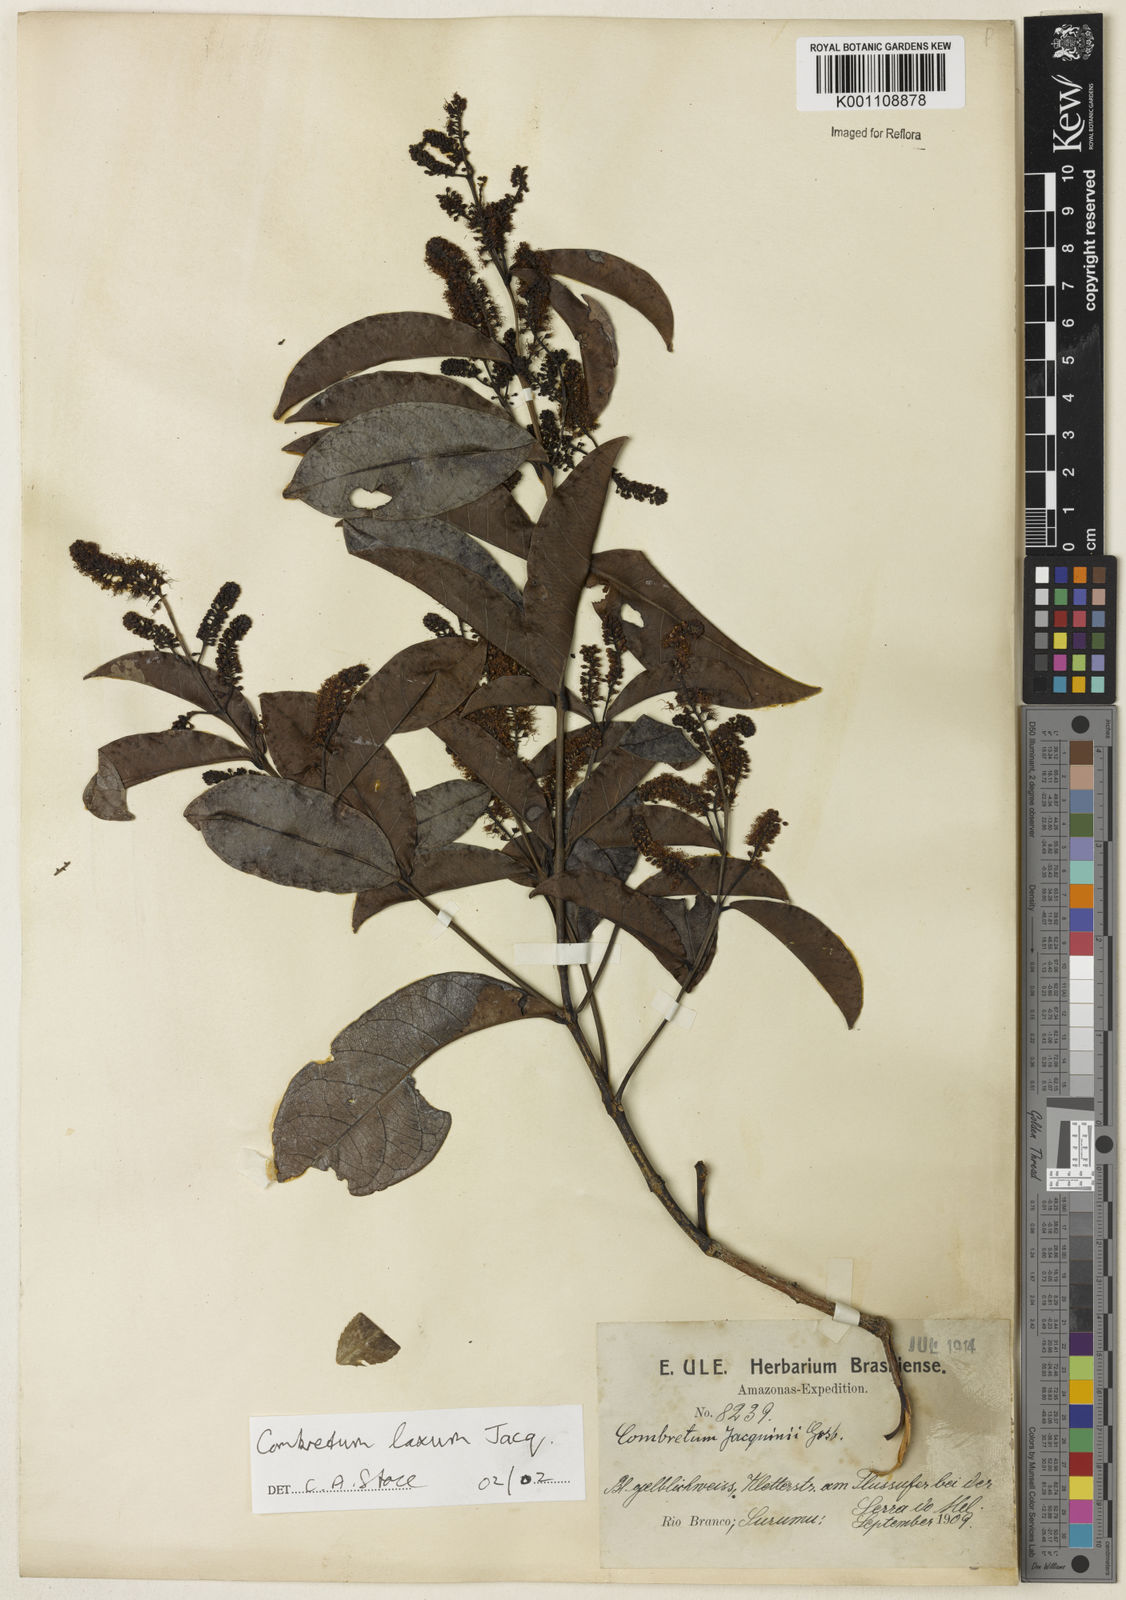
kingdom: Plantae
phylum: Tracheophyta
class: Magnoliopsida
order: Myrtales
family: Combretaceae
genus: Combretum
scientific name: Combretum laxum
